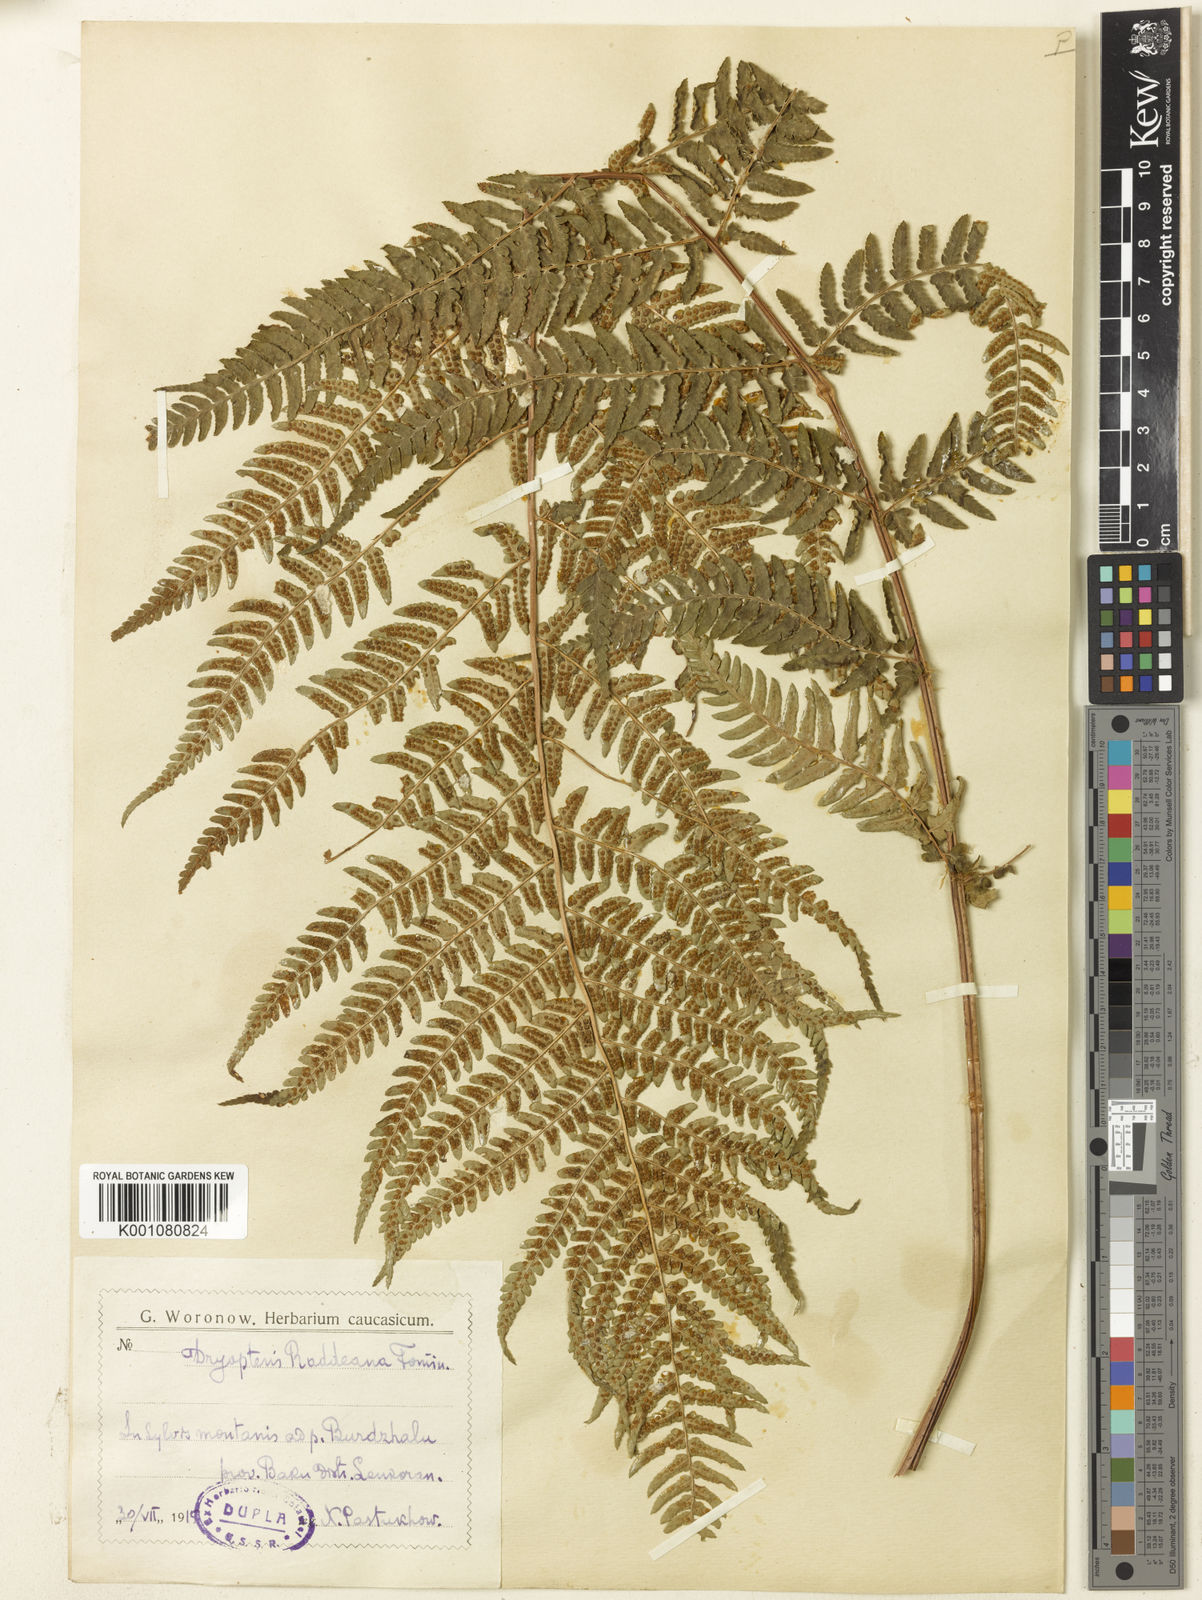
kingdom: Plantae
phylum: Tracheophyta
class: Polypodiopsida
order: Polypodiales
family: Dryopteridaceae
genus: Dryopteris
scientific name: Dryopteris
